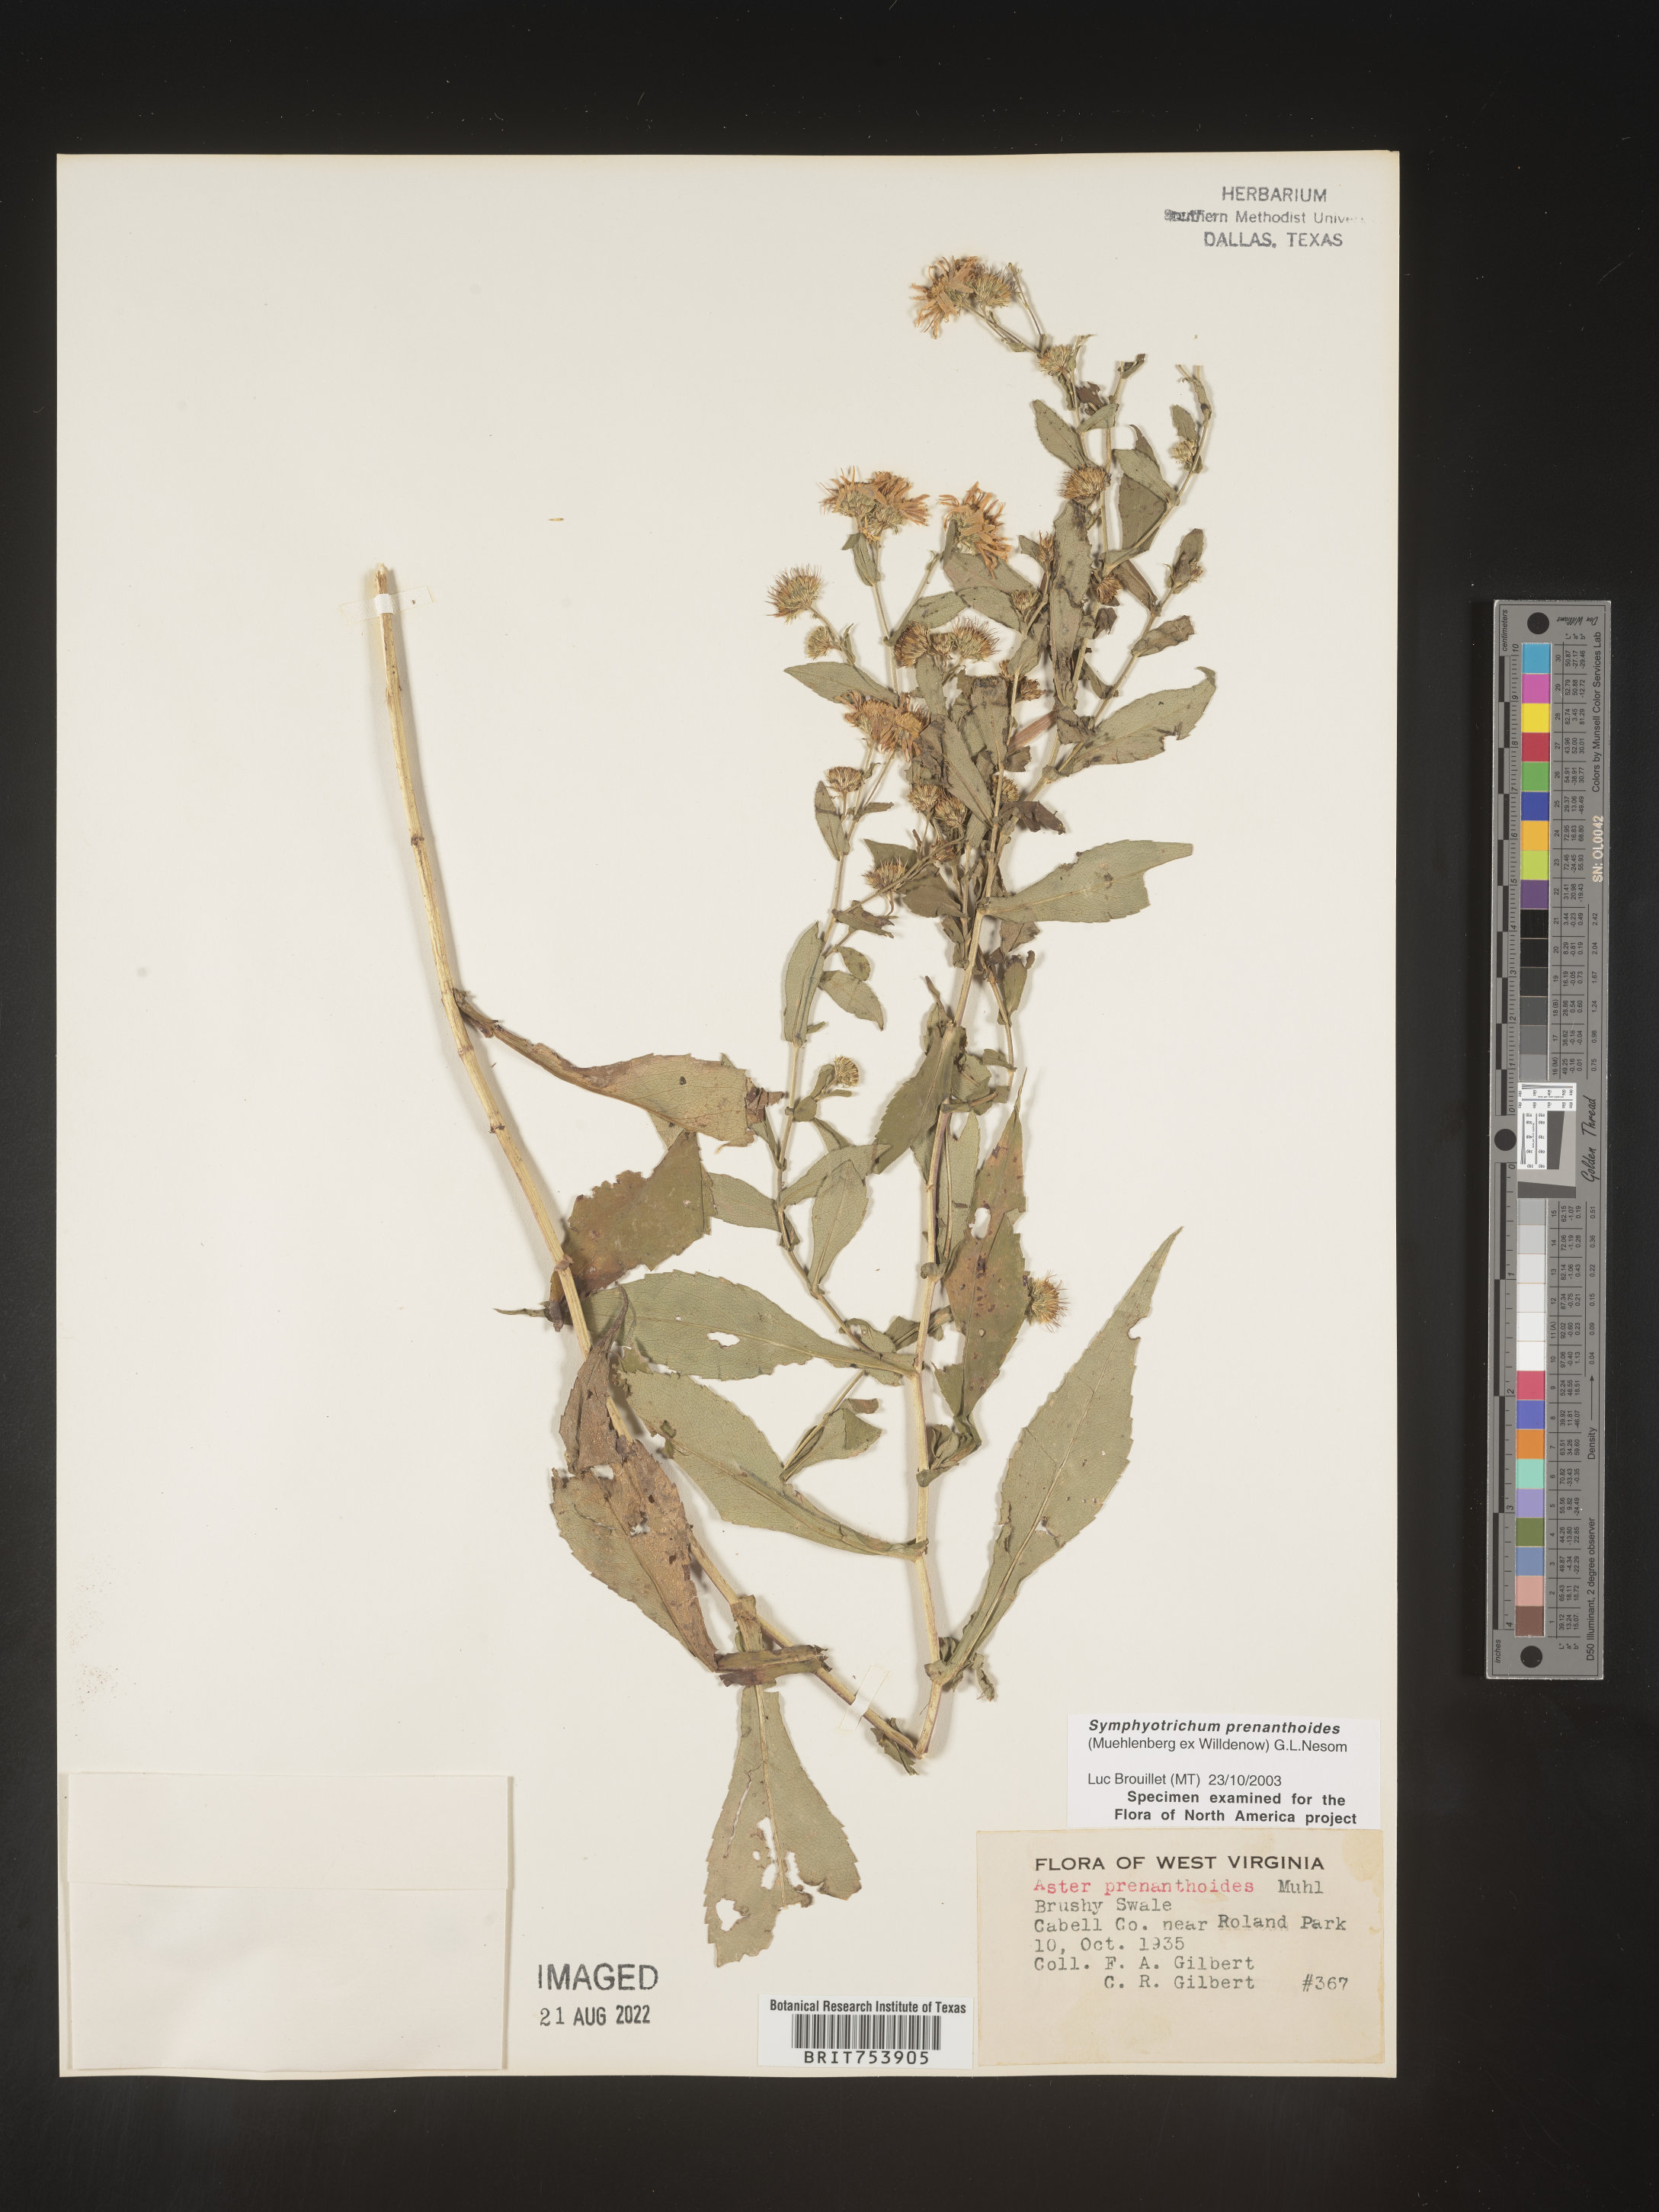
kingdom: Plantae
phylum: Tracheophyta
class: Magnoliopsida
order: Asterales
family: Asteraceae
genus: Symphyotrichum
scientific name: Symphyotrichum prenanthoides
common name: Crooked-stem aster
